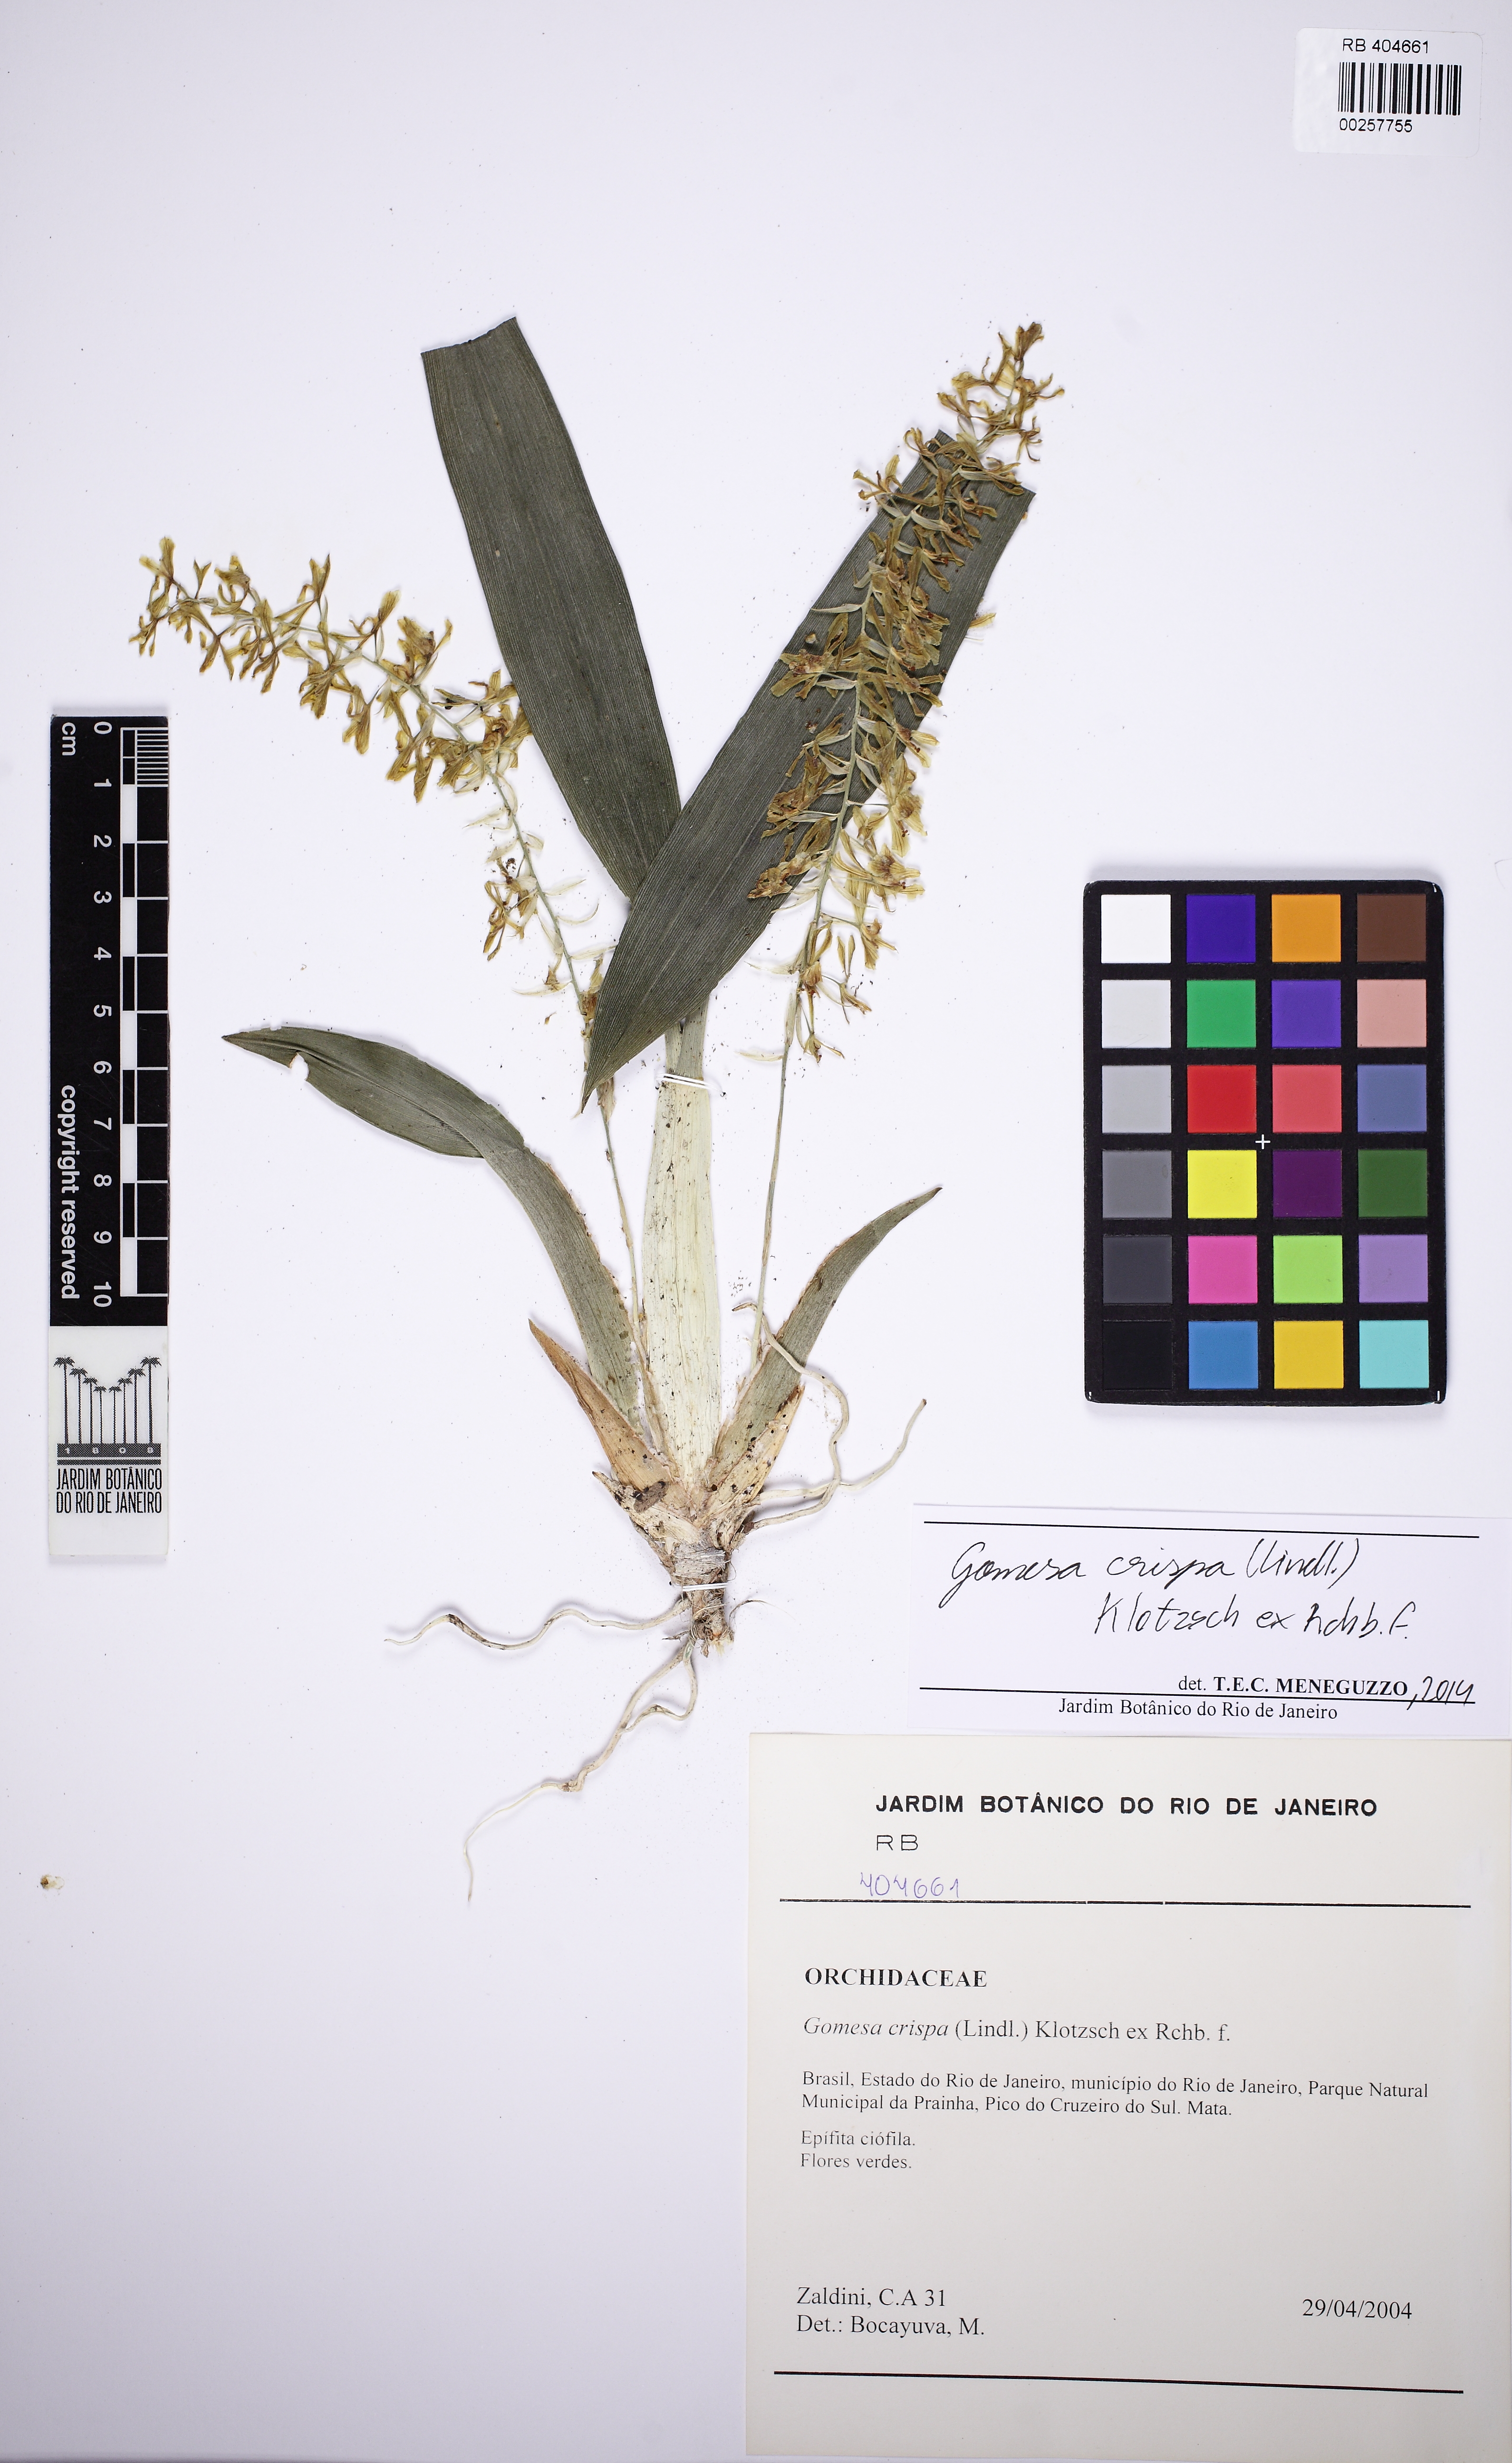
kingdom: Plantae
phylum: Tracheophyta
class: Liliopsida
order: Asparagales
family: Orchidaceae
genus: Gomesa
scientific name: Gomesa recurva
